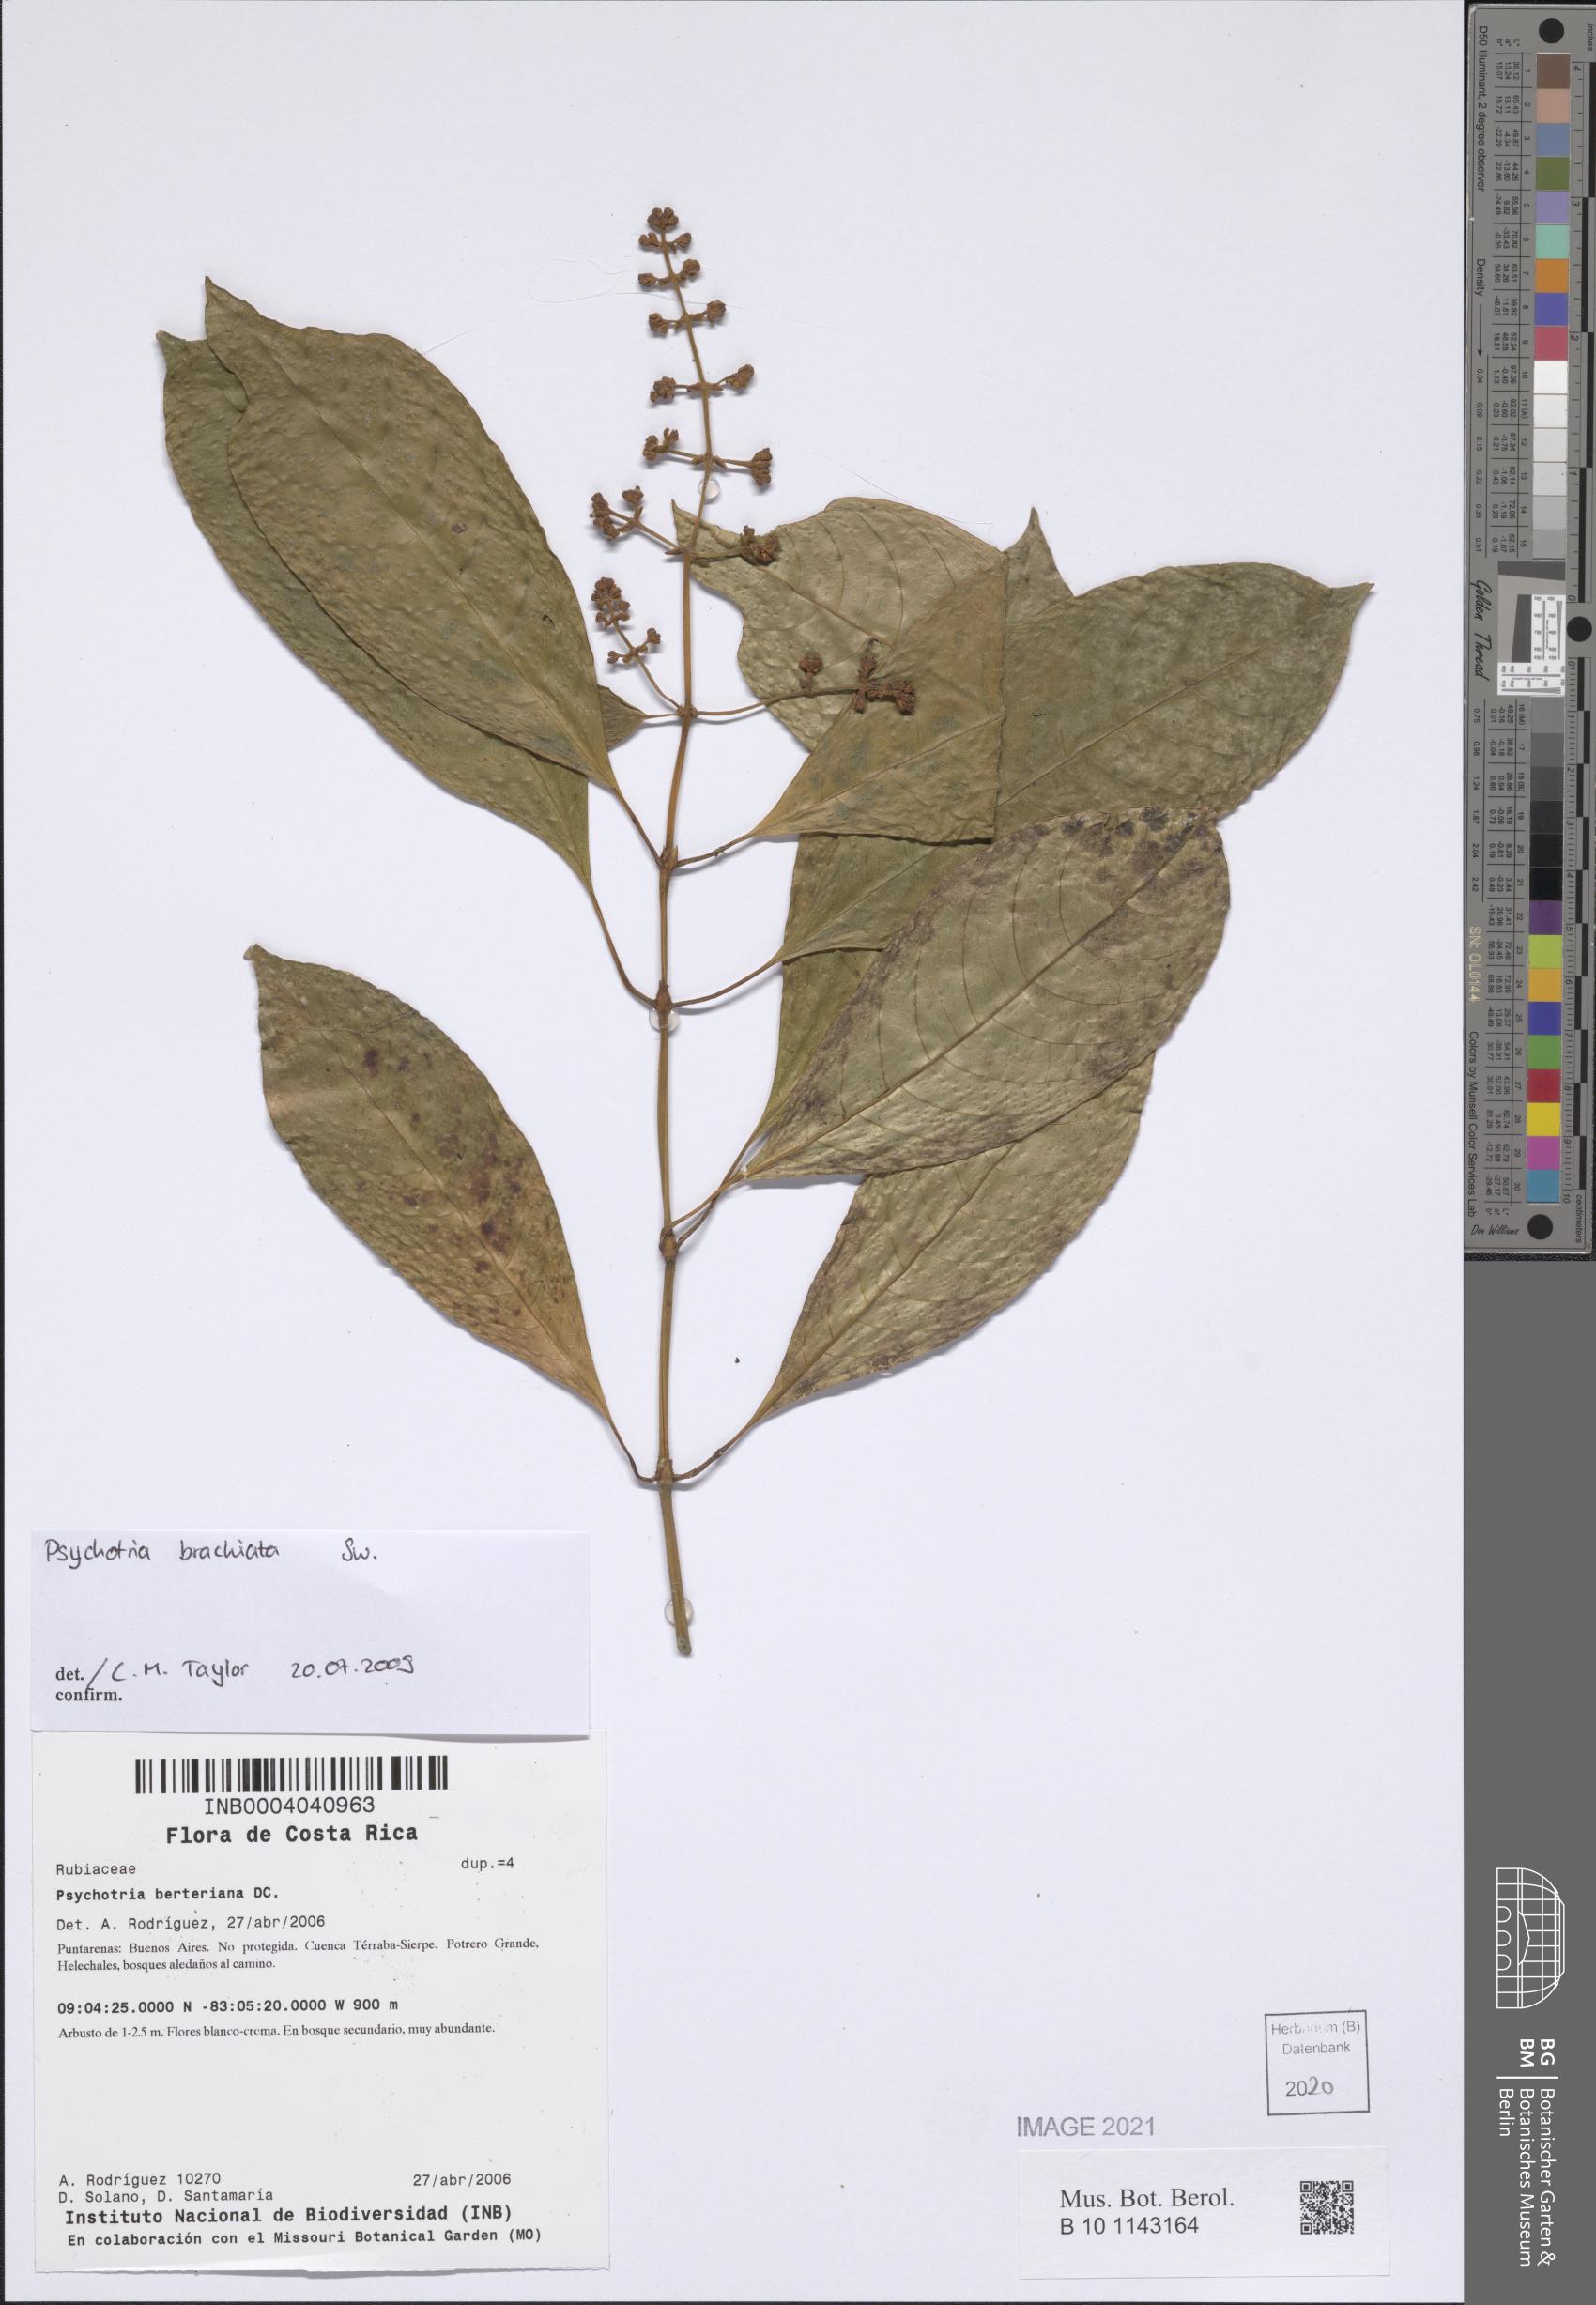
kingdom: Plantae
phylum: Tracheophyta
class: Magnoliopsida
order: Gentianales
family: Rubiaceae
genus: Palicourea
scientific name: Palicourea brachiata
